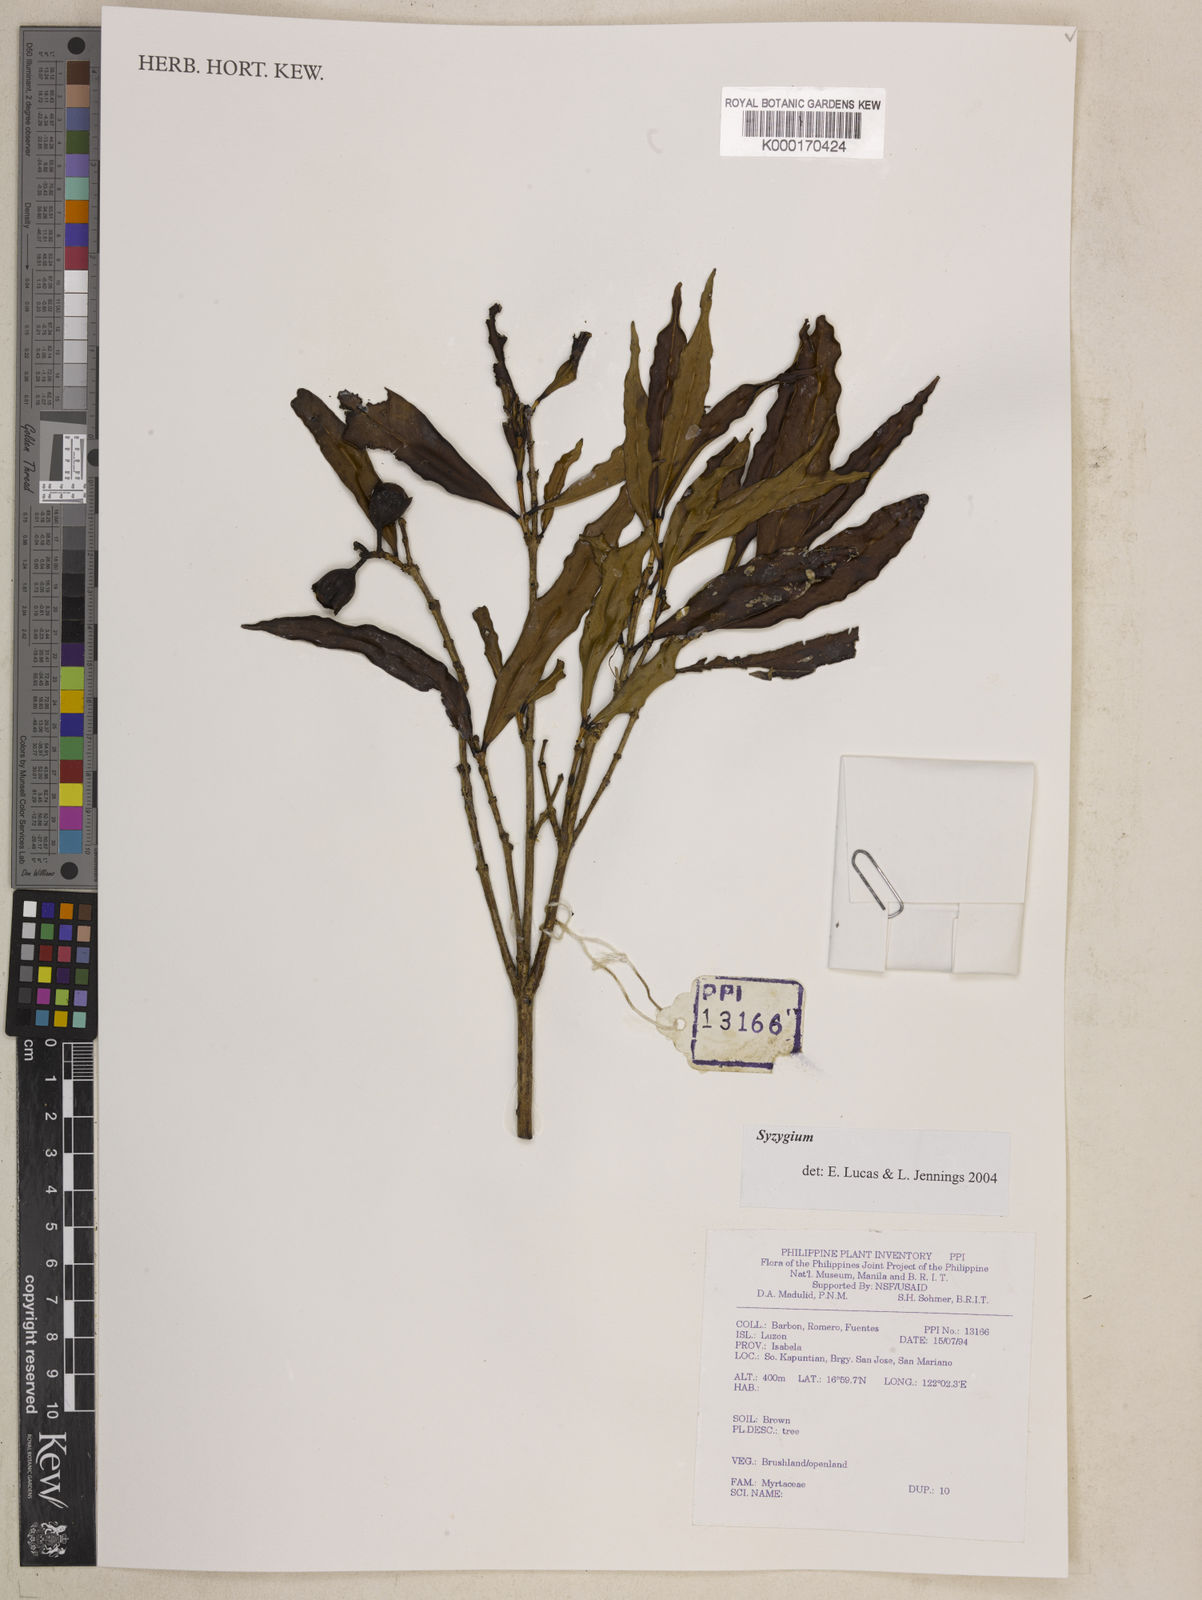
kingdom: Plantae
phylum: Tracheophyta
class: Magnoliopsida
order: Myrtales
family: Myrtaceae
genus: Syzygium
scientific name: Syzygium
